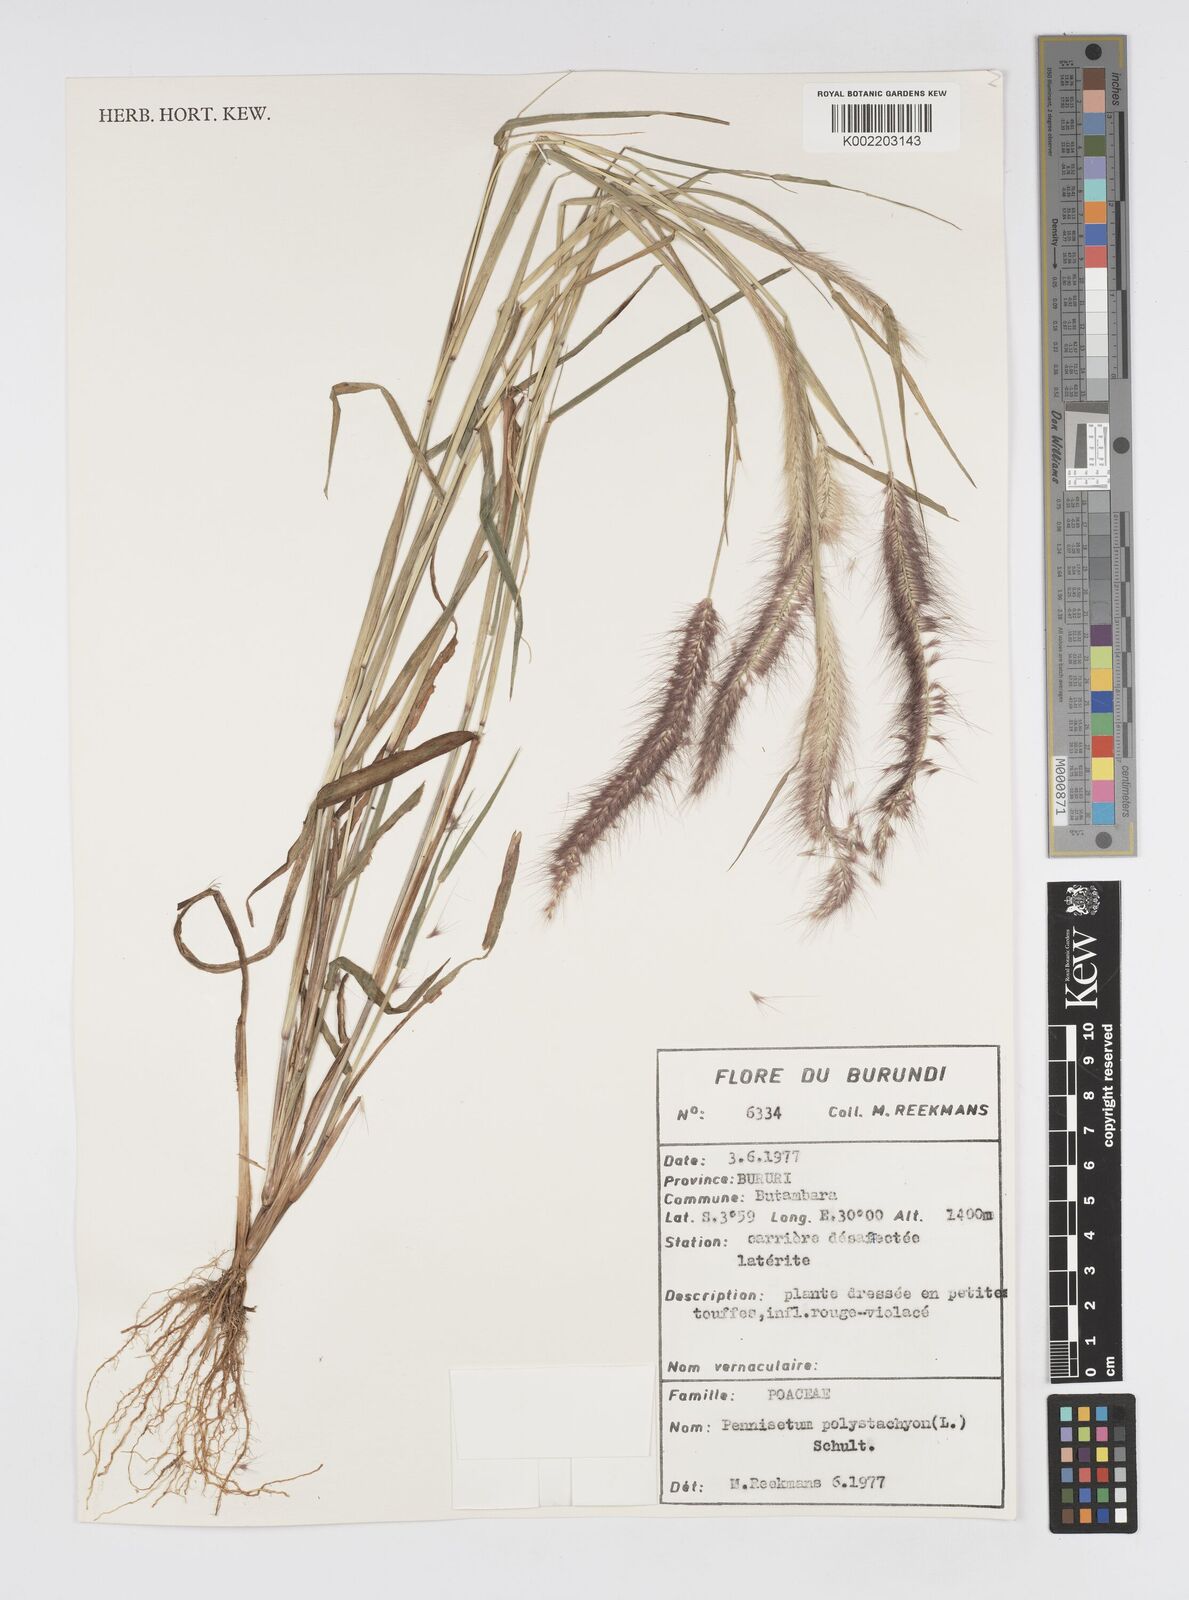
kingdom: Plantae
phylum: Tracheophyta
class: Liliopsida
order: Poales
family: Poaceae
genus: Setaria
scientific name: Setaria parviflora
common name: Knotroot bristle-grass
